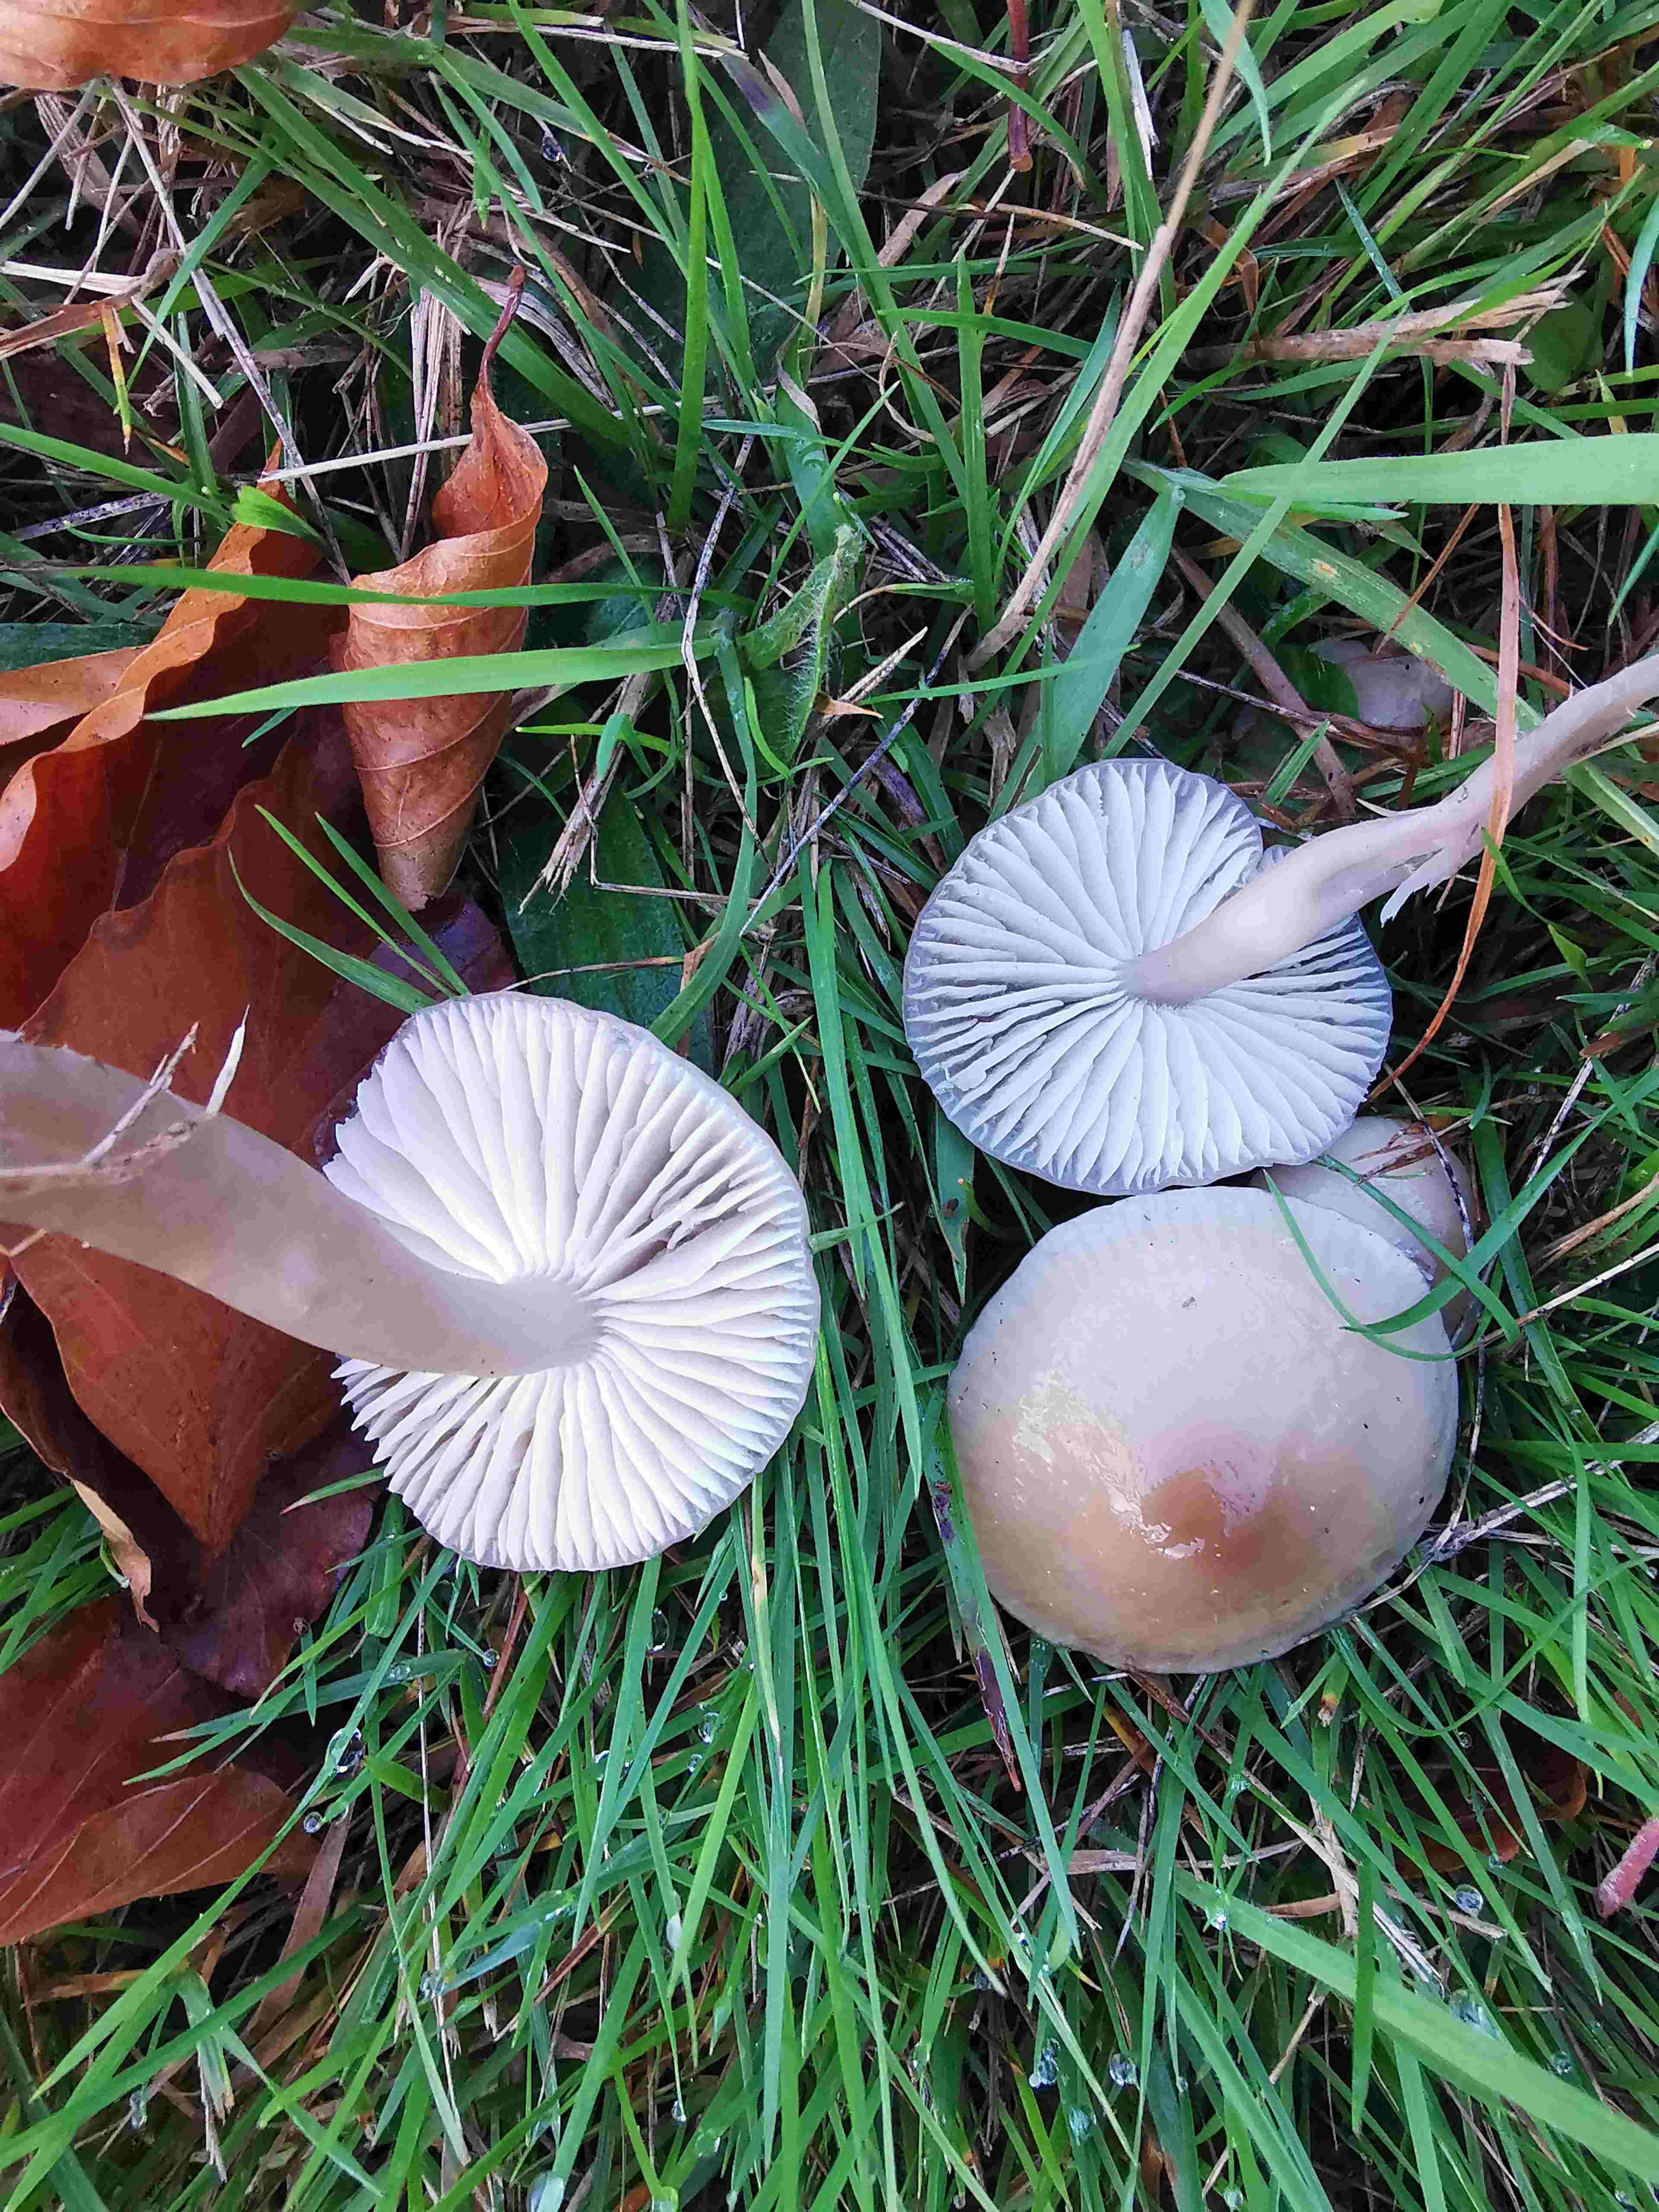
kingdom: Fungi
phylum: Basidiomycota
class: Agaricomycetes
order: Agaricales
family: Hygrophoraceae
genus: Gliophorus
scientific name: Gliophorus irrigatus
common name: slimet vokshat
